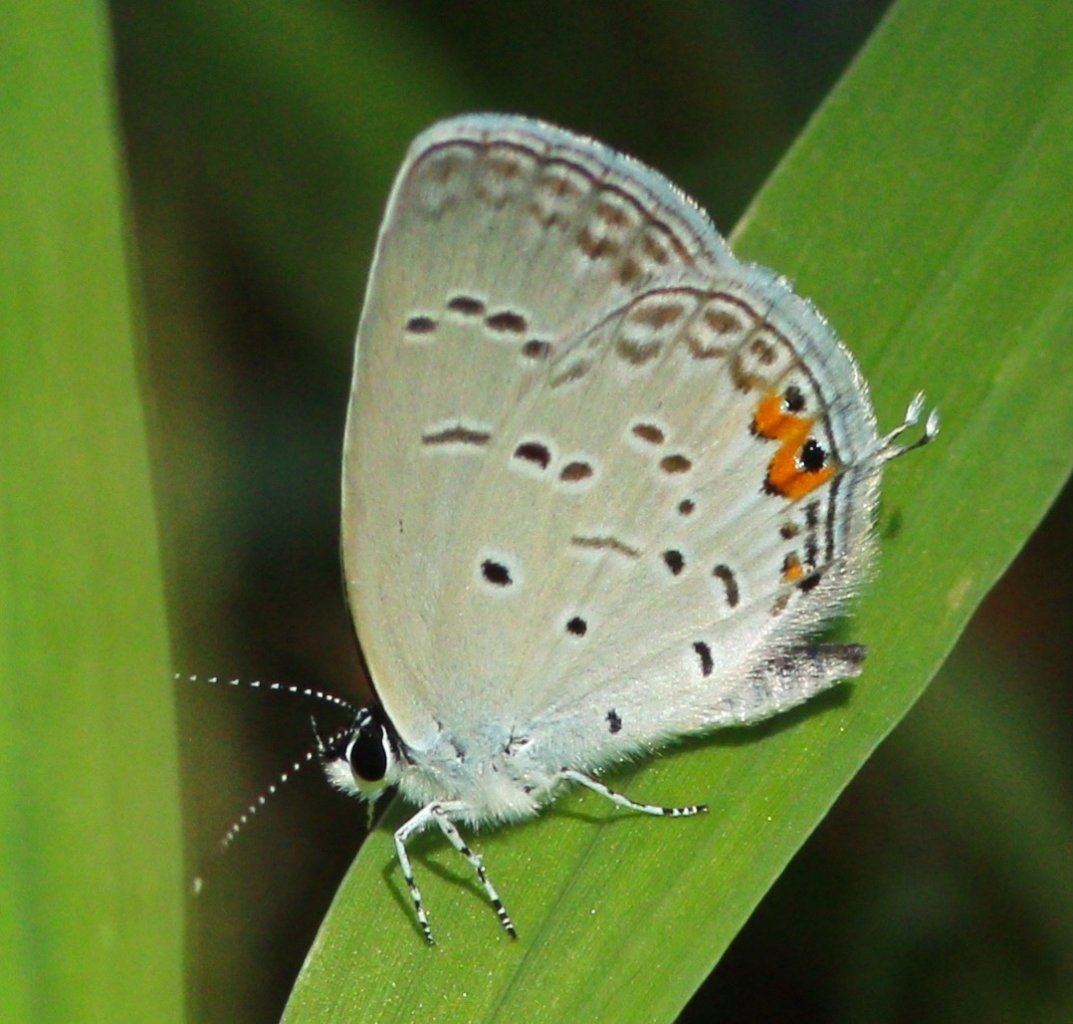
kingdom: Animalia
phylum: Arthropoda
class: Insecta
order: Lepidoptera
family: Lycaenidae
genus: Elkalyce
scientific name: Elkalyce comyntas
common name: Eastern Tailed-Blue
